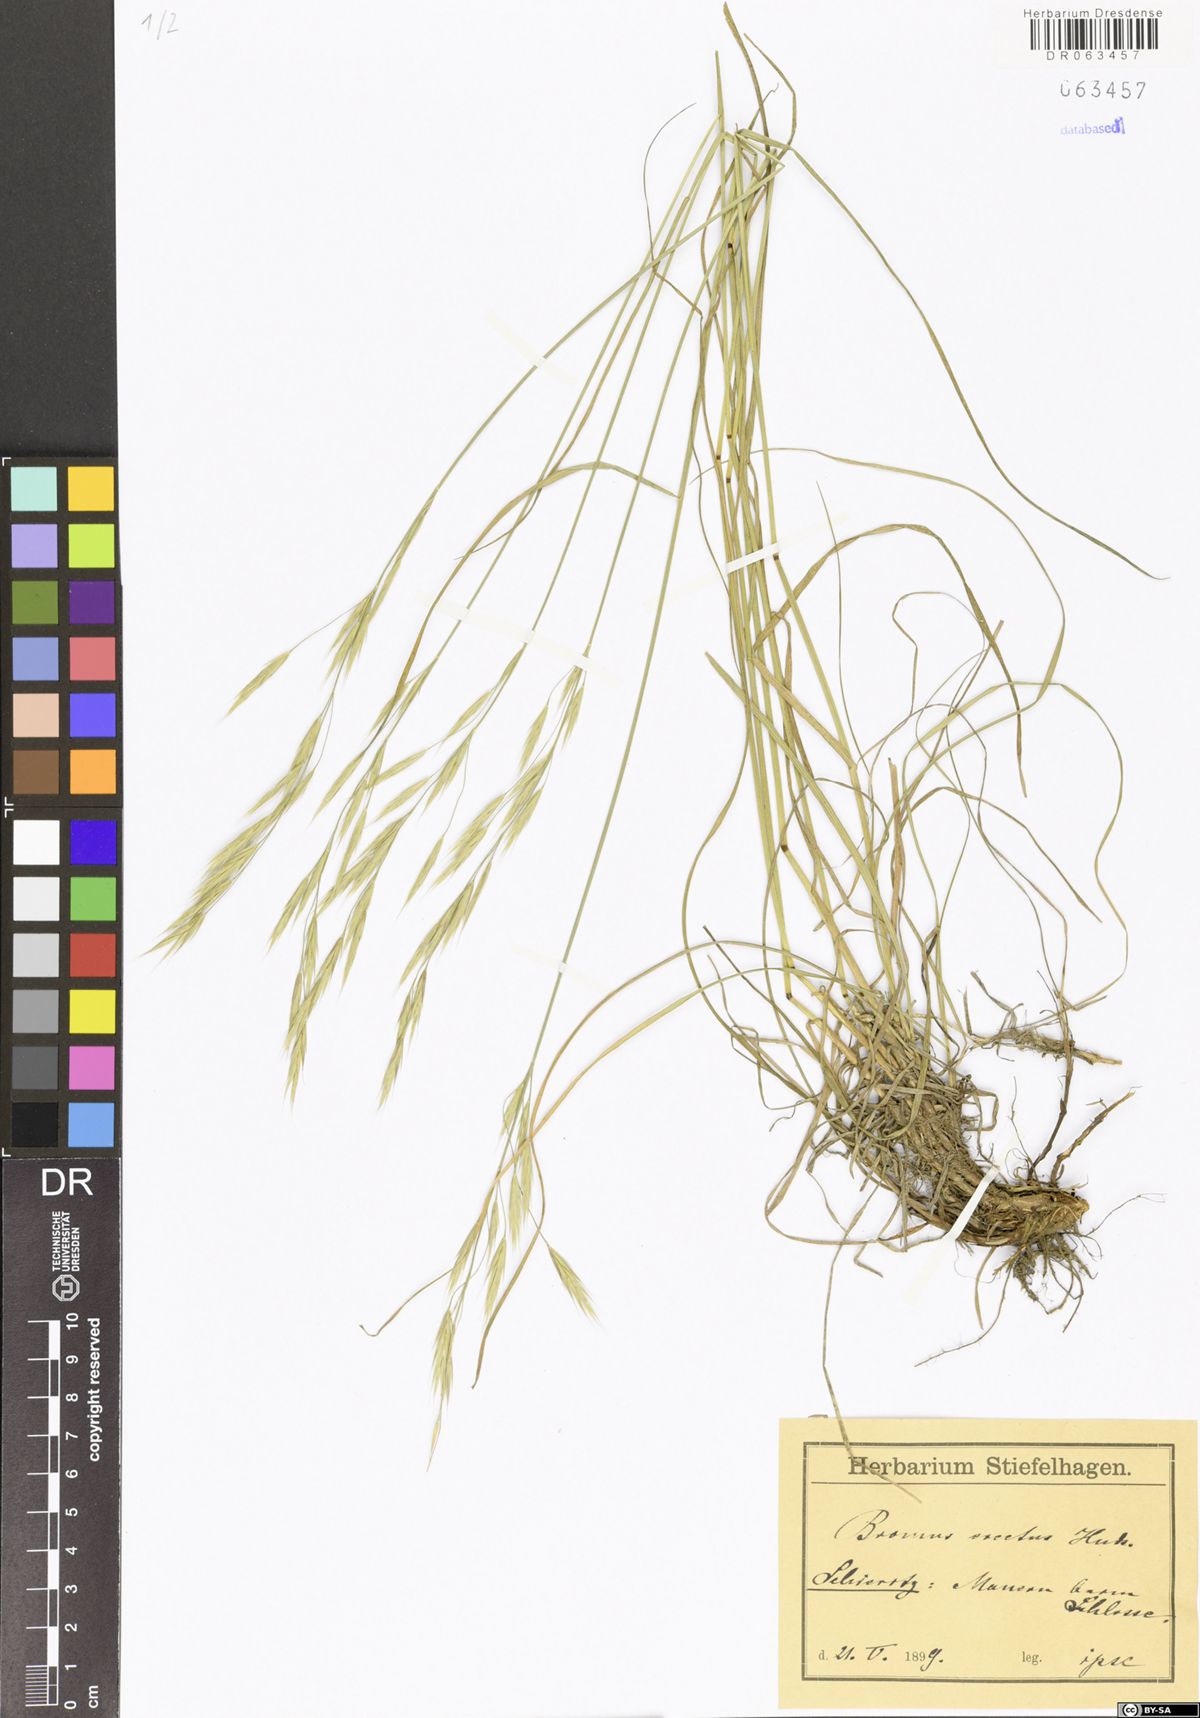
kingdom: Plantae
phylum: Tracheophyta
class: Liliopsida
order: Poales
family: Poaceae
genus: Bromus
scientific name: Bromus erectus
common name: Erect brome
